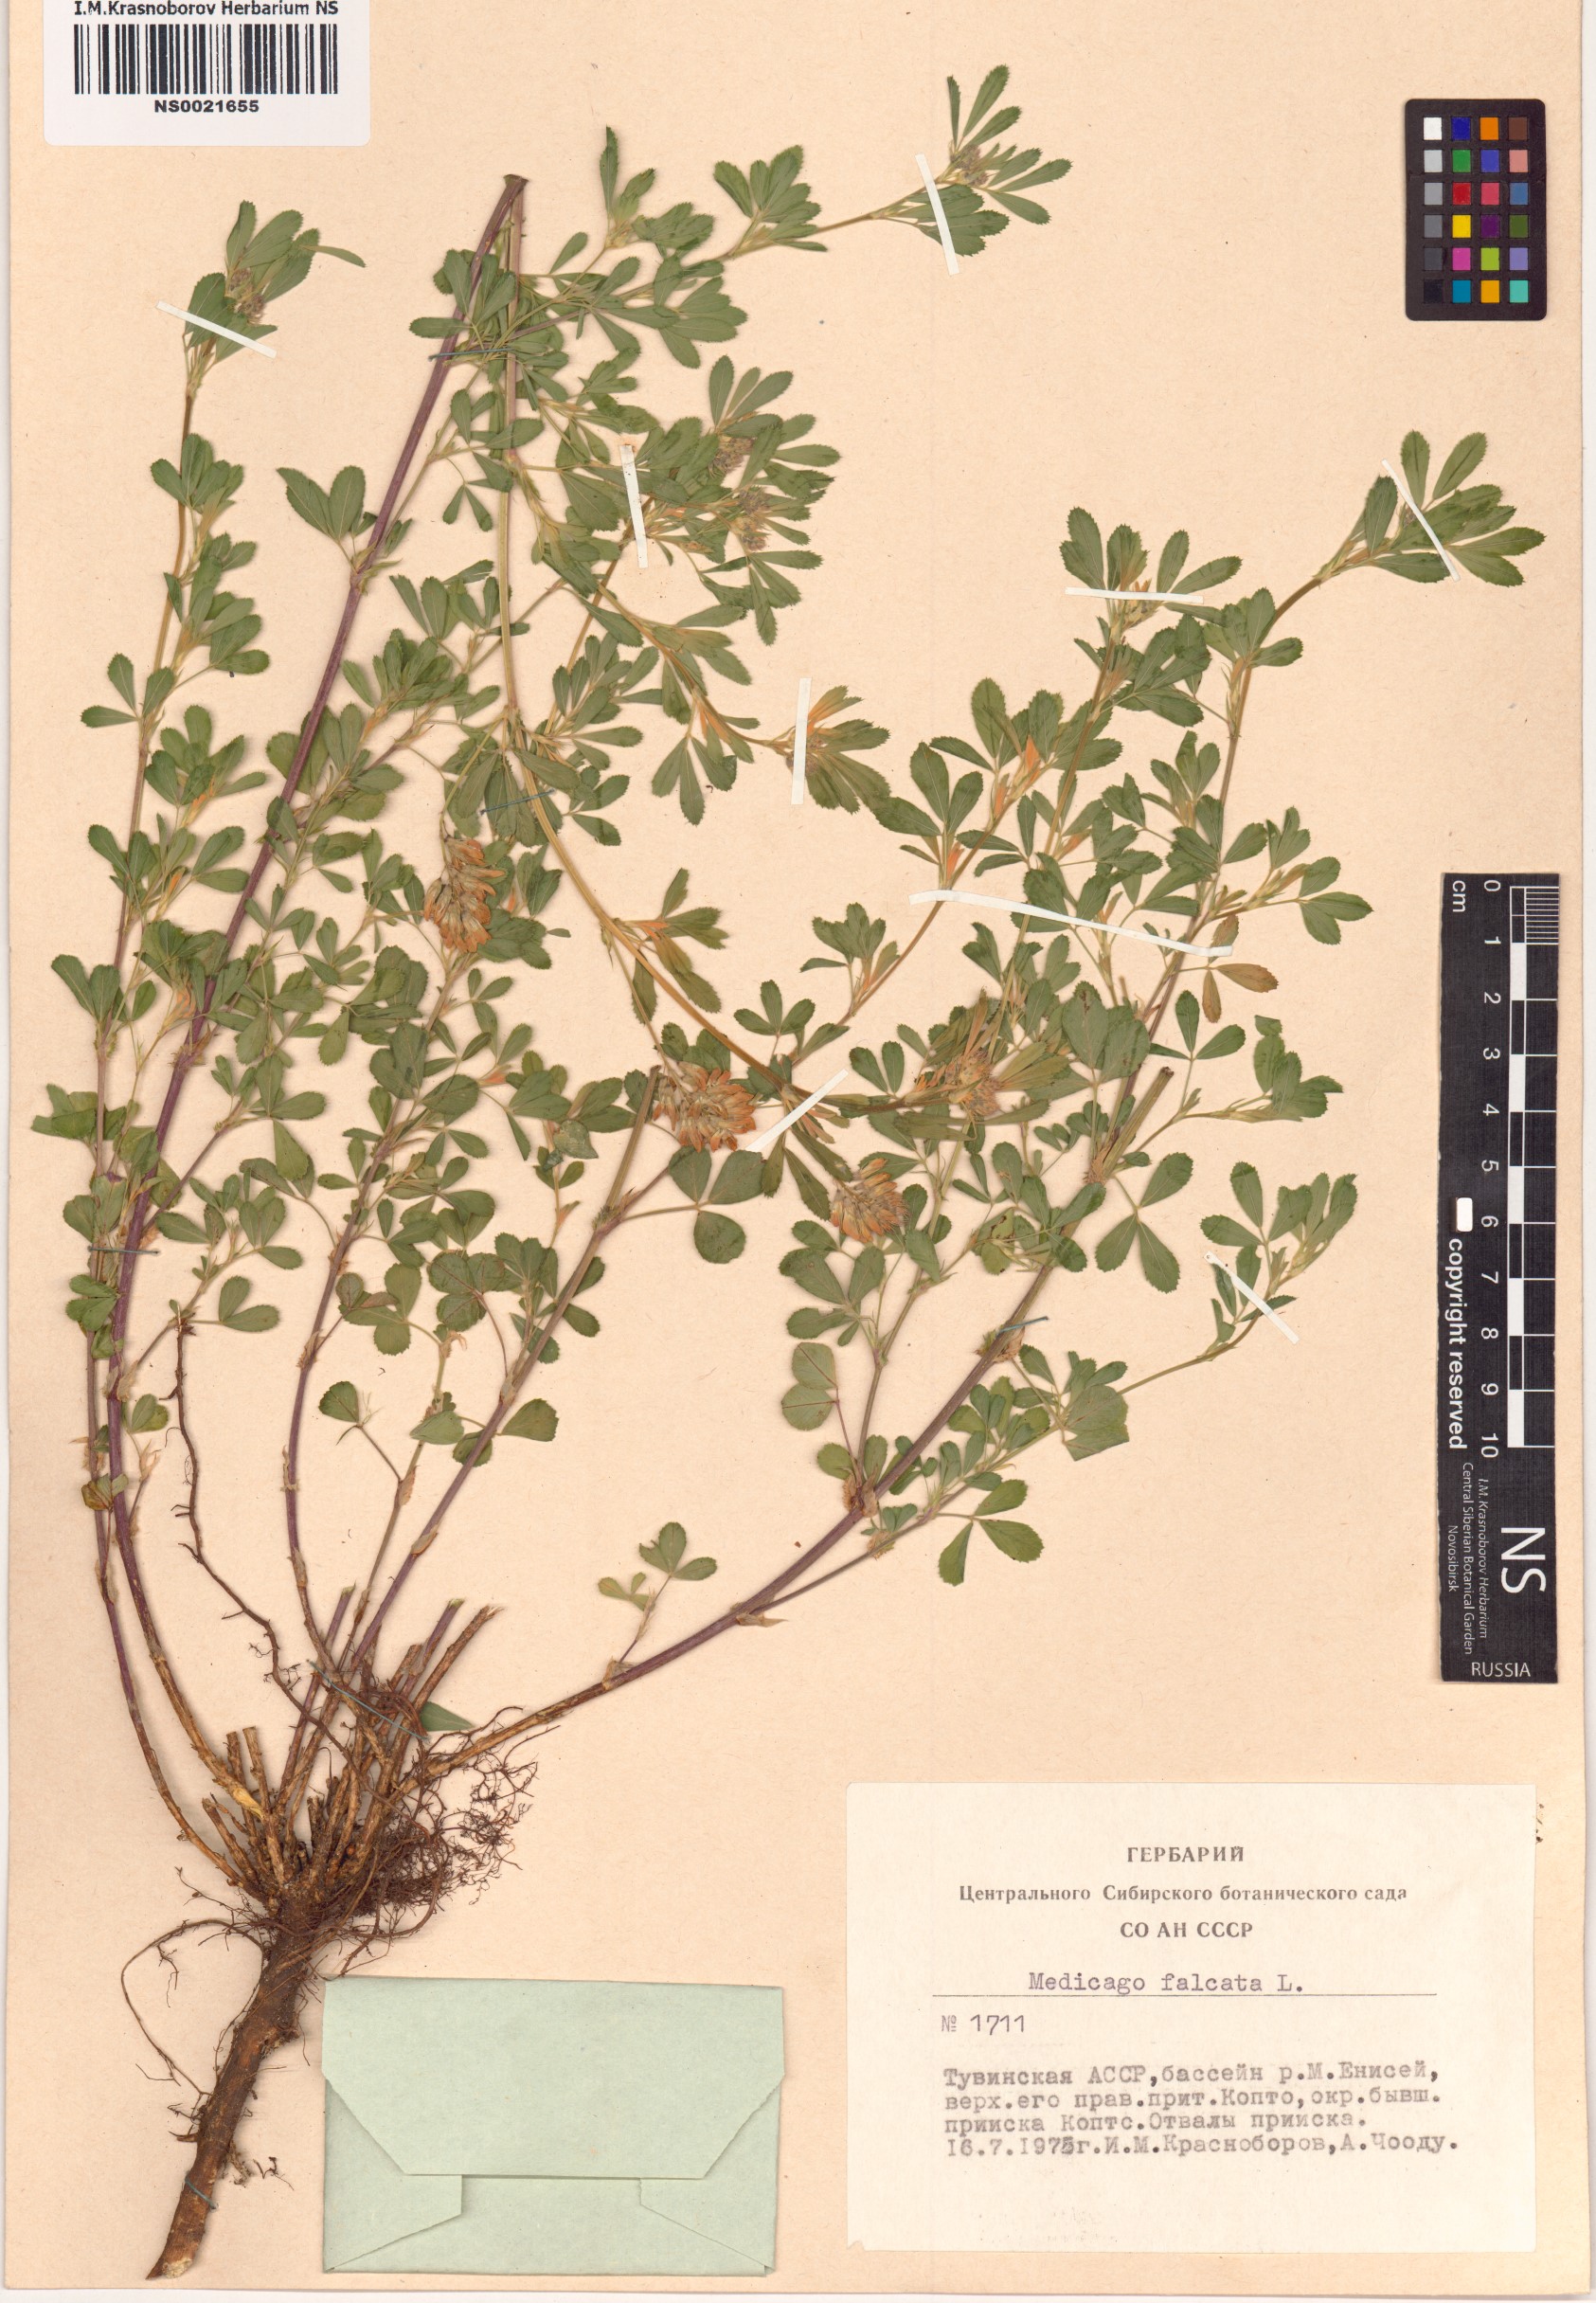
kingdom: Plantae
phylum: Tracheophyta
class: Magnoliopsida
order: Fabales
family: Fabaceae
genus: Medicago
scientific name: Medicago falcata
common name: Sickle medick
